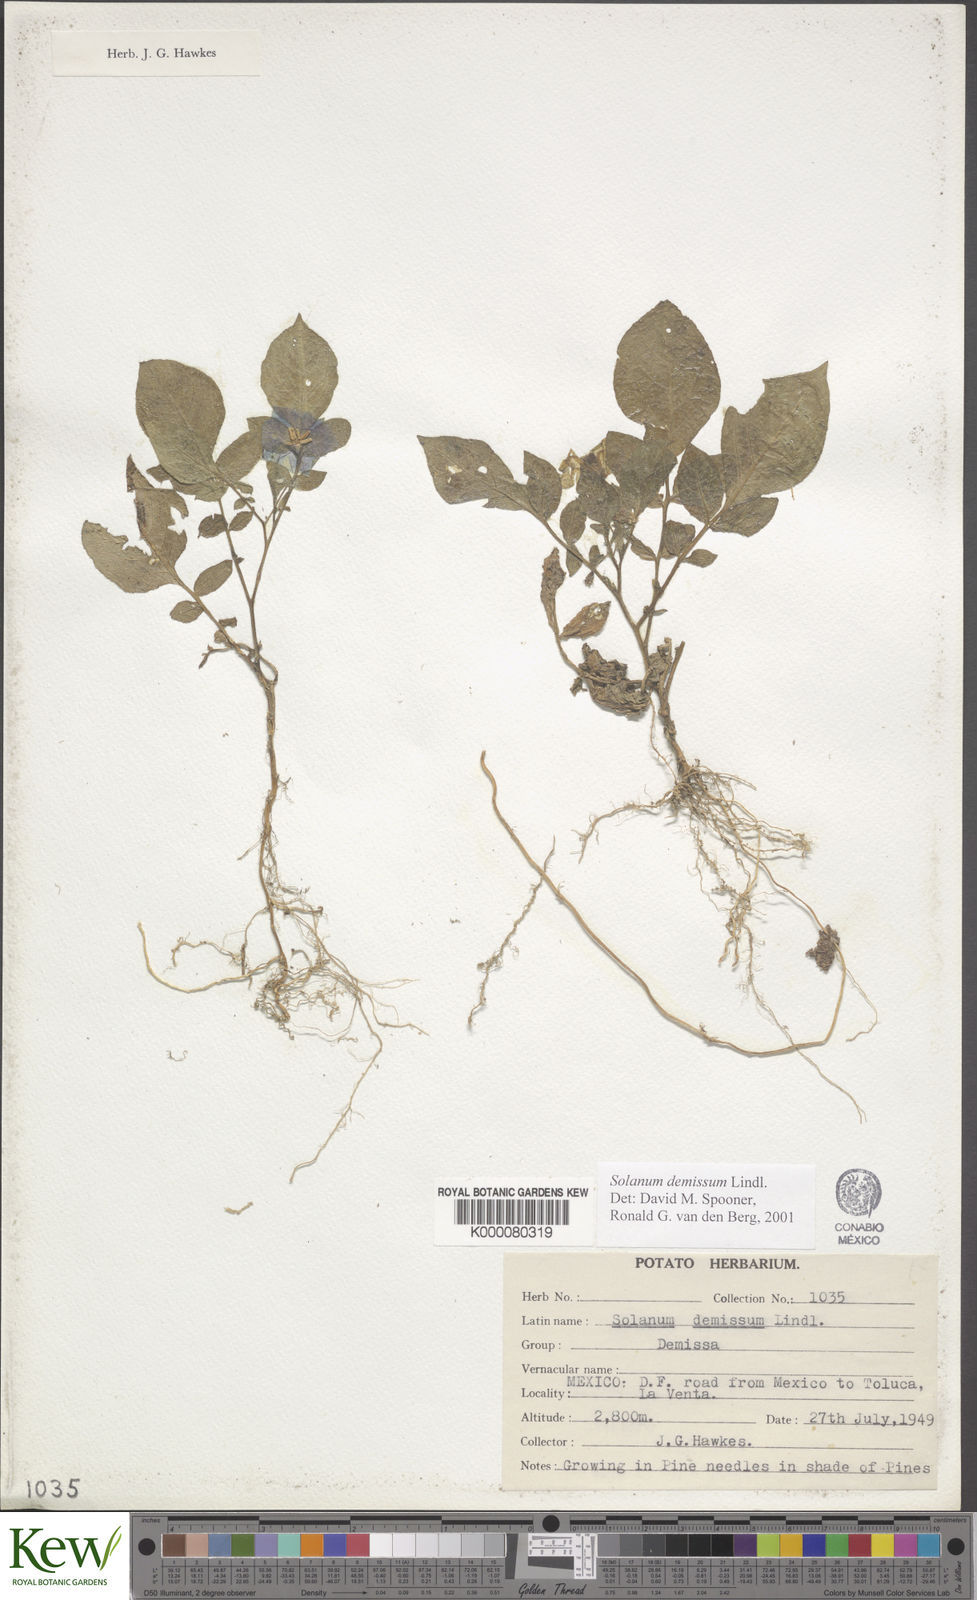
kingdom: Plantae
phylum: Tracheophyta
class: Magnoliopsida
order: Solanales
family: Solanaceae
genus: Solanum
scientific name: Solanum demissum
